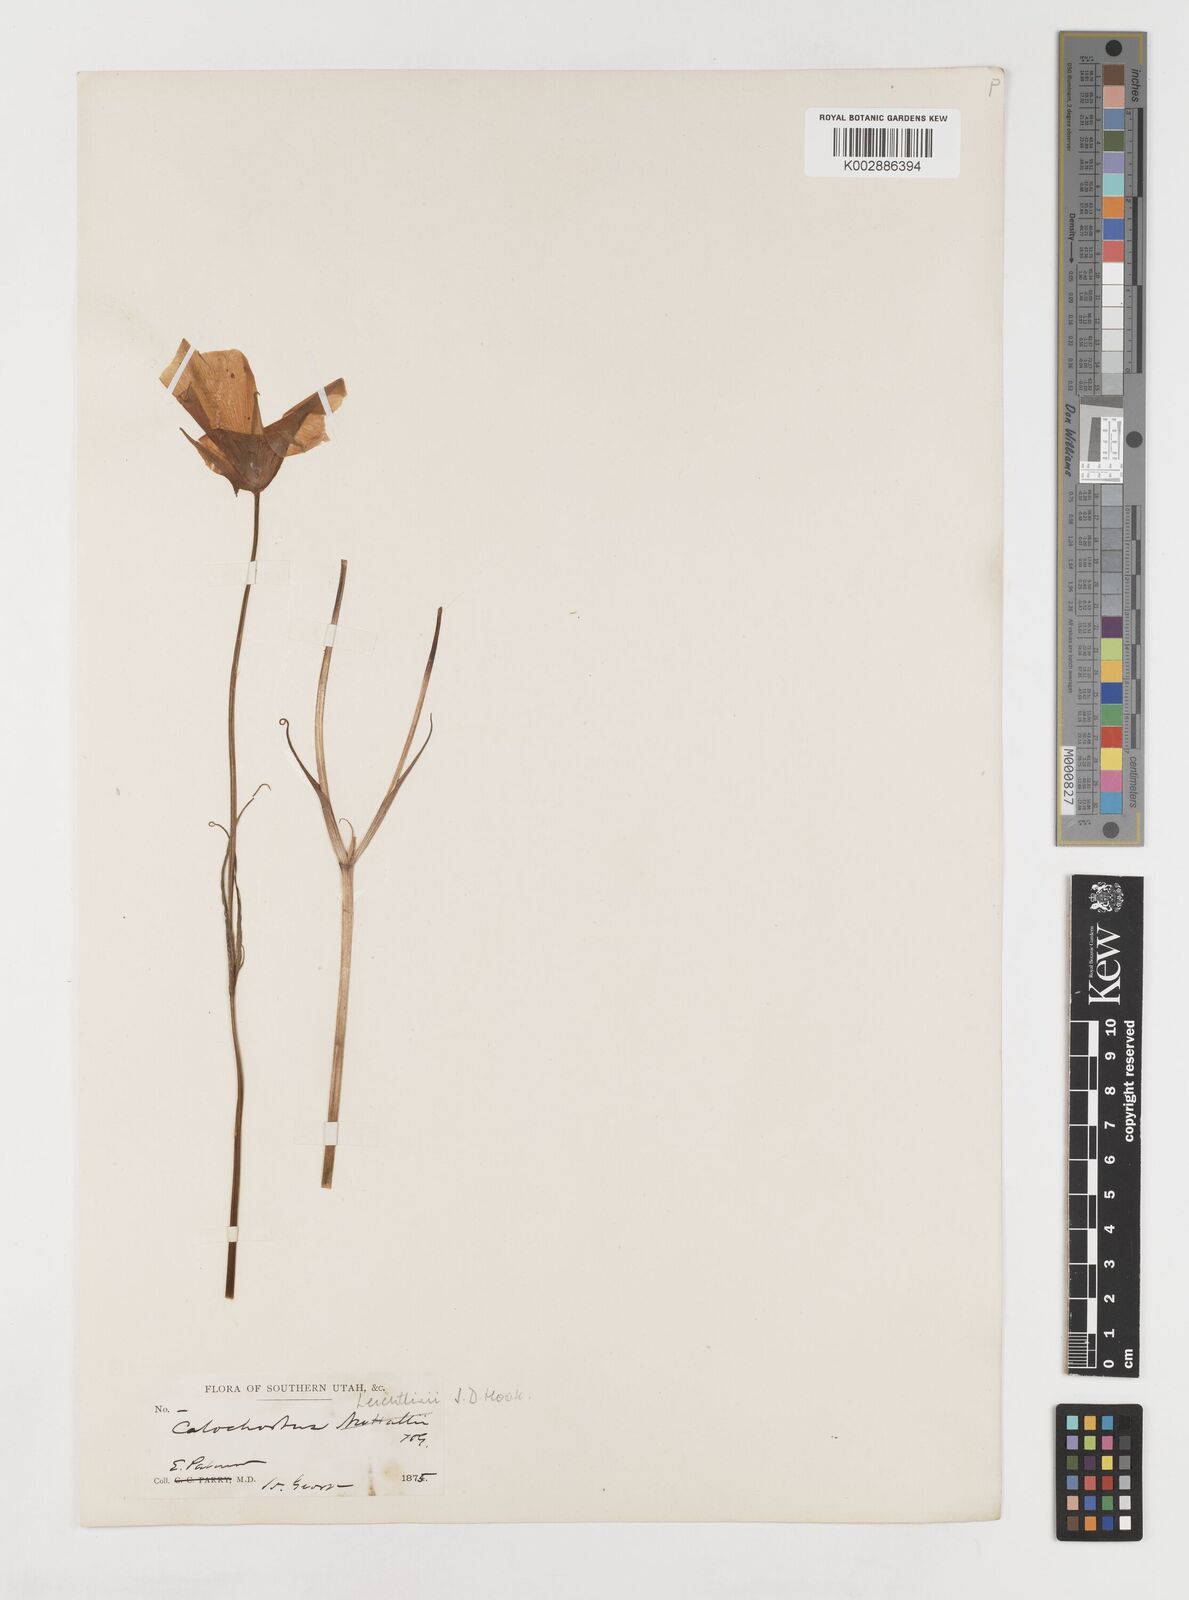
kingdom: Plantae
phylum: Tracheophyta
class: Liliopsida
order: Liliales
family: Liliaceae
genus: Calochortus
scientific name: Calochortus leichtlinii
